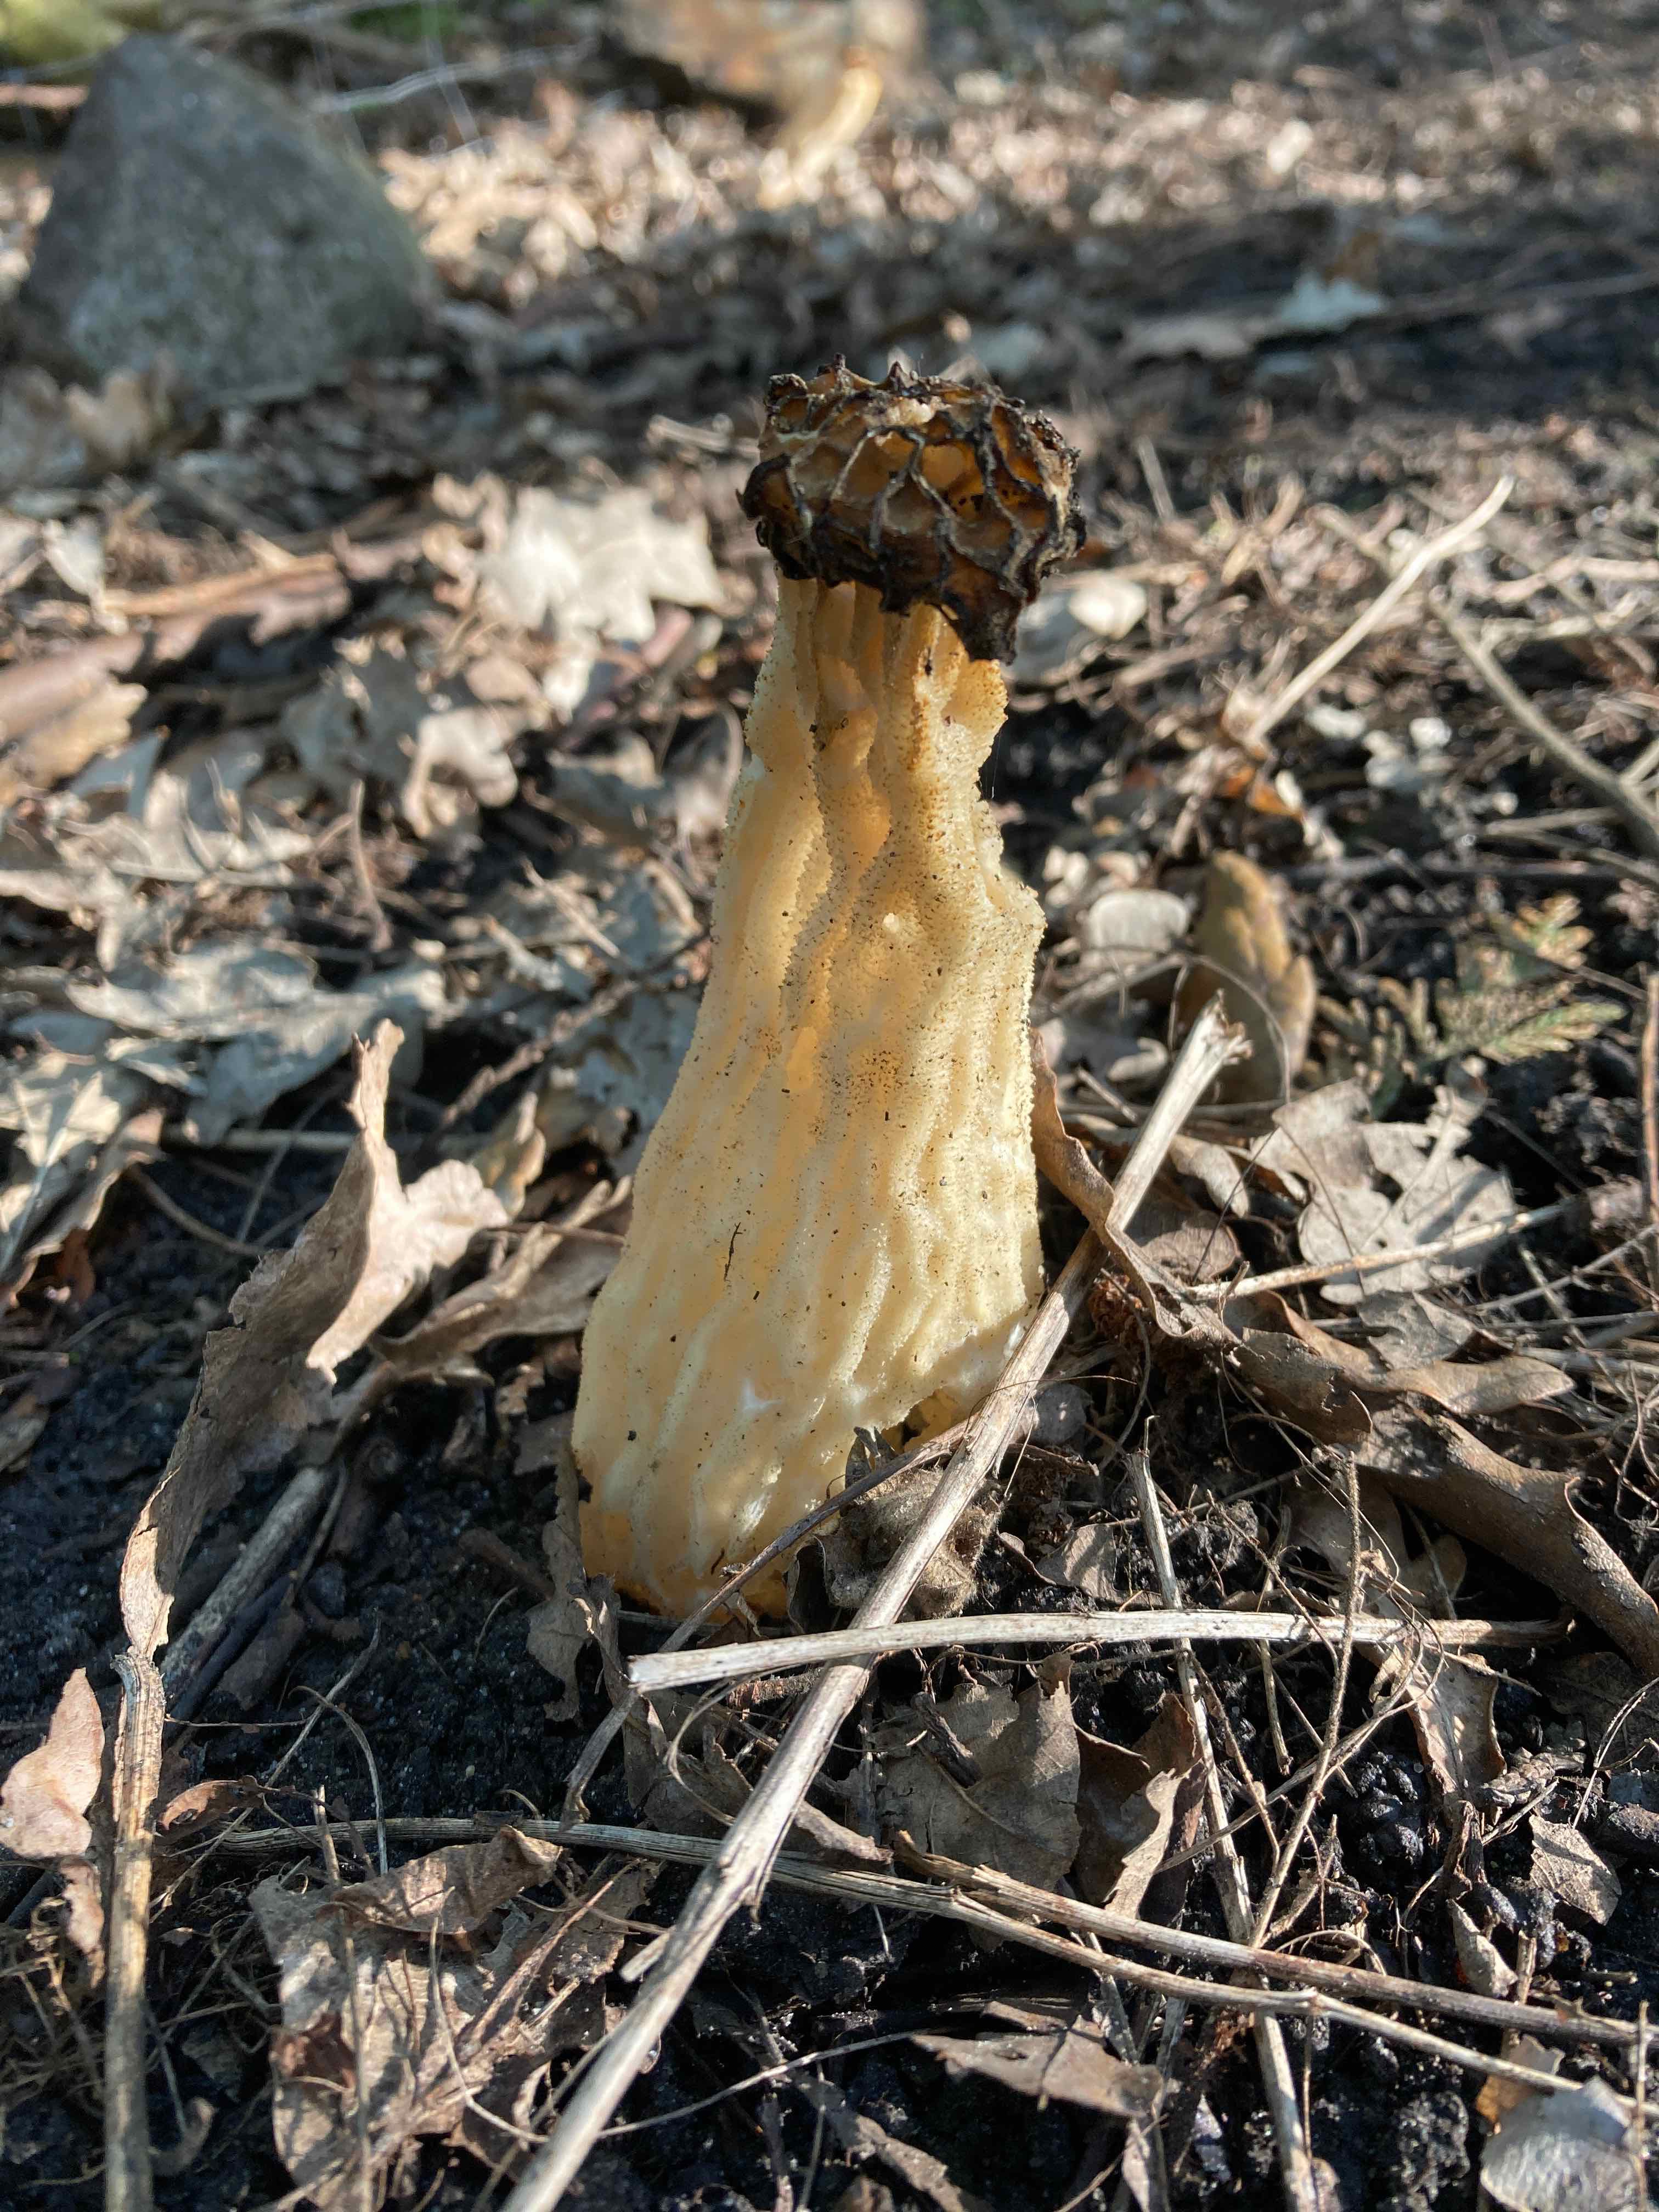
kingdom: Fungi
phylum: Ascomycota
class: Pezizomycetes
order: Pezizales
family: Morchellaceae
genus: Morchella
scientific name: Morchella semilibera
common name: hætte-morkel
